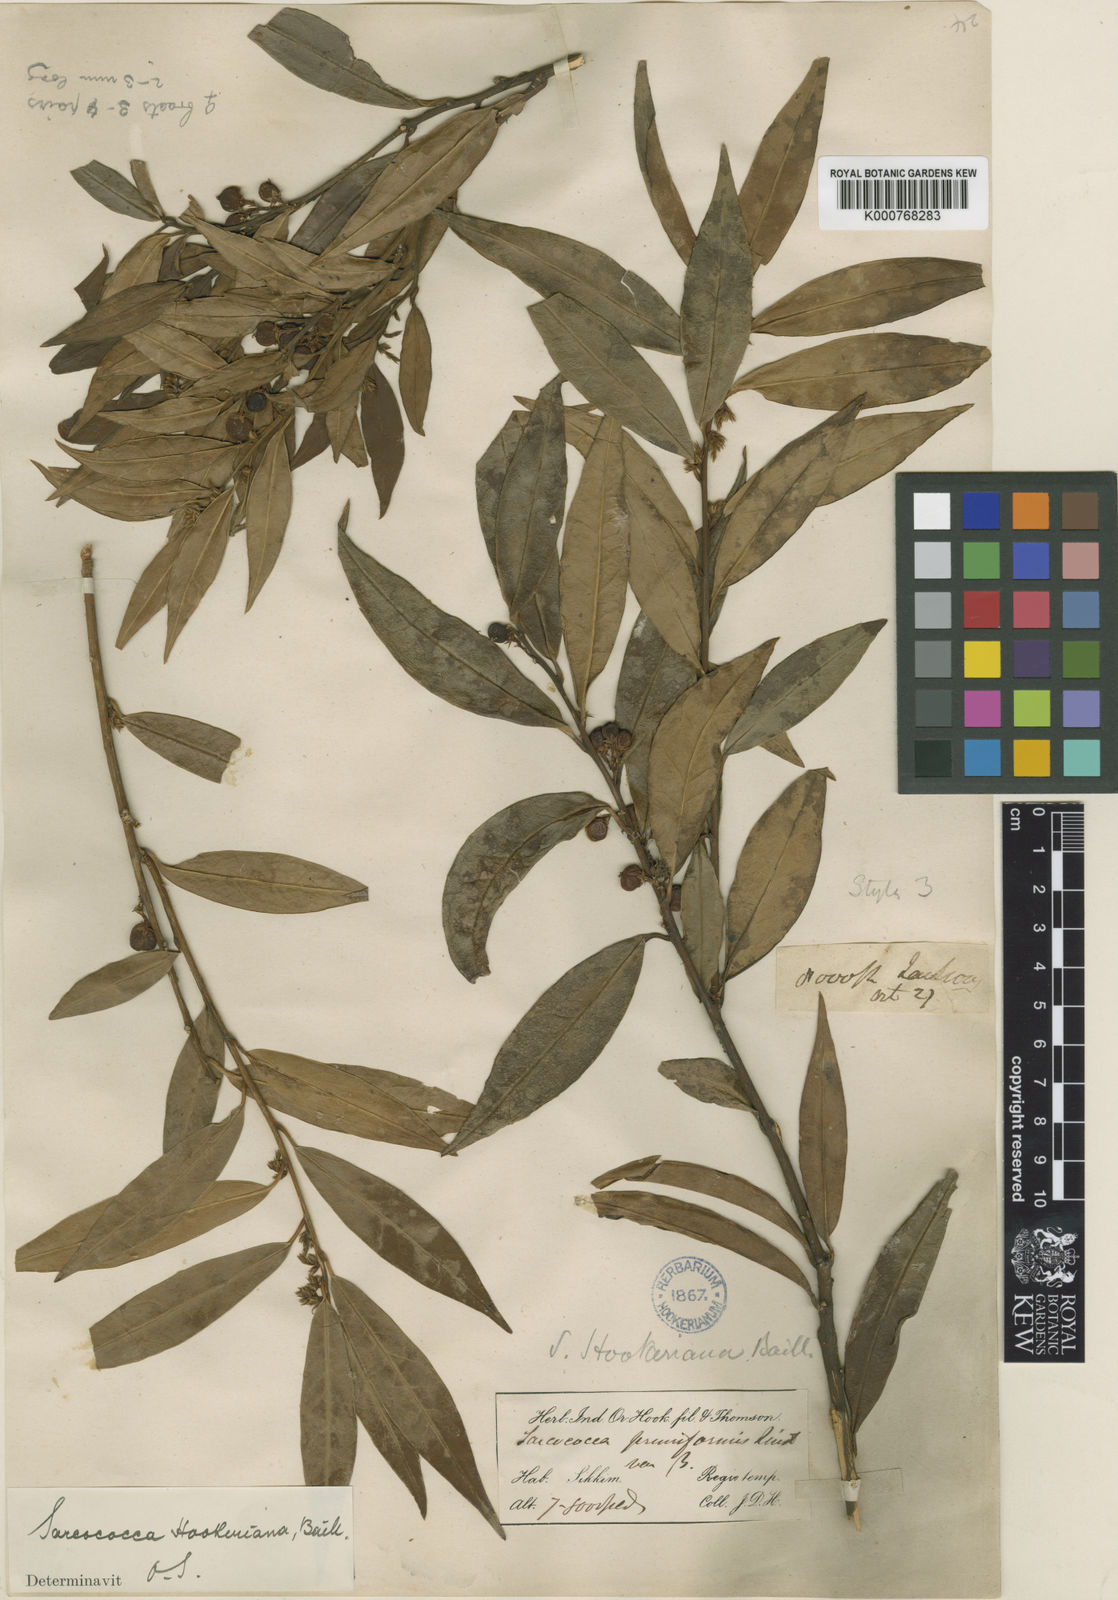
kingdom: Plantae
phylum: Tracheophyta
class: Magnoliopsida
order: Buxales
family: Buxaceae
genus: Sarcococca
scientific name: Sarcococca hookeriana
